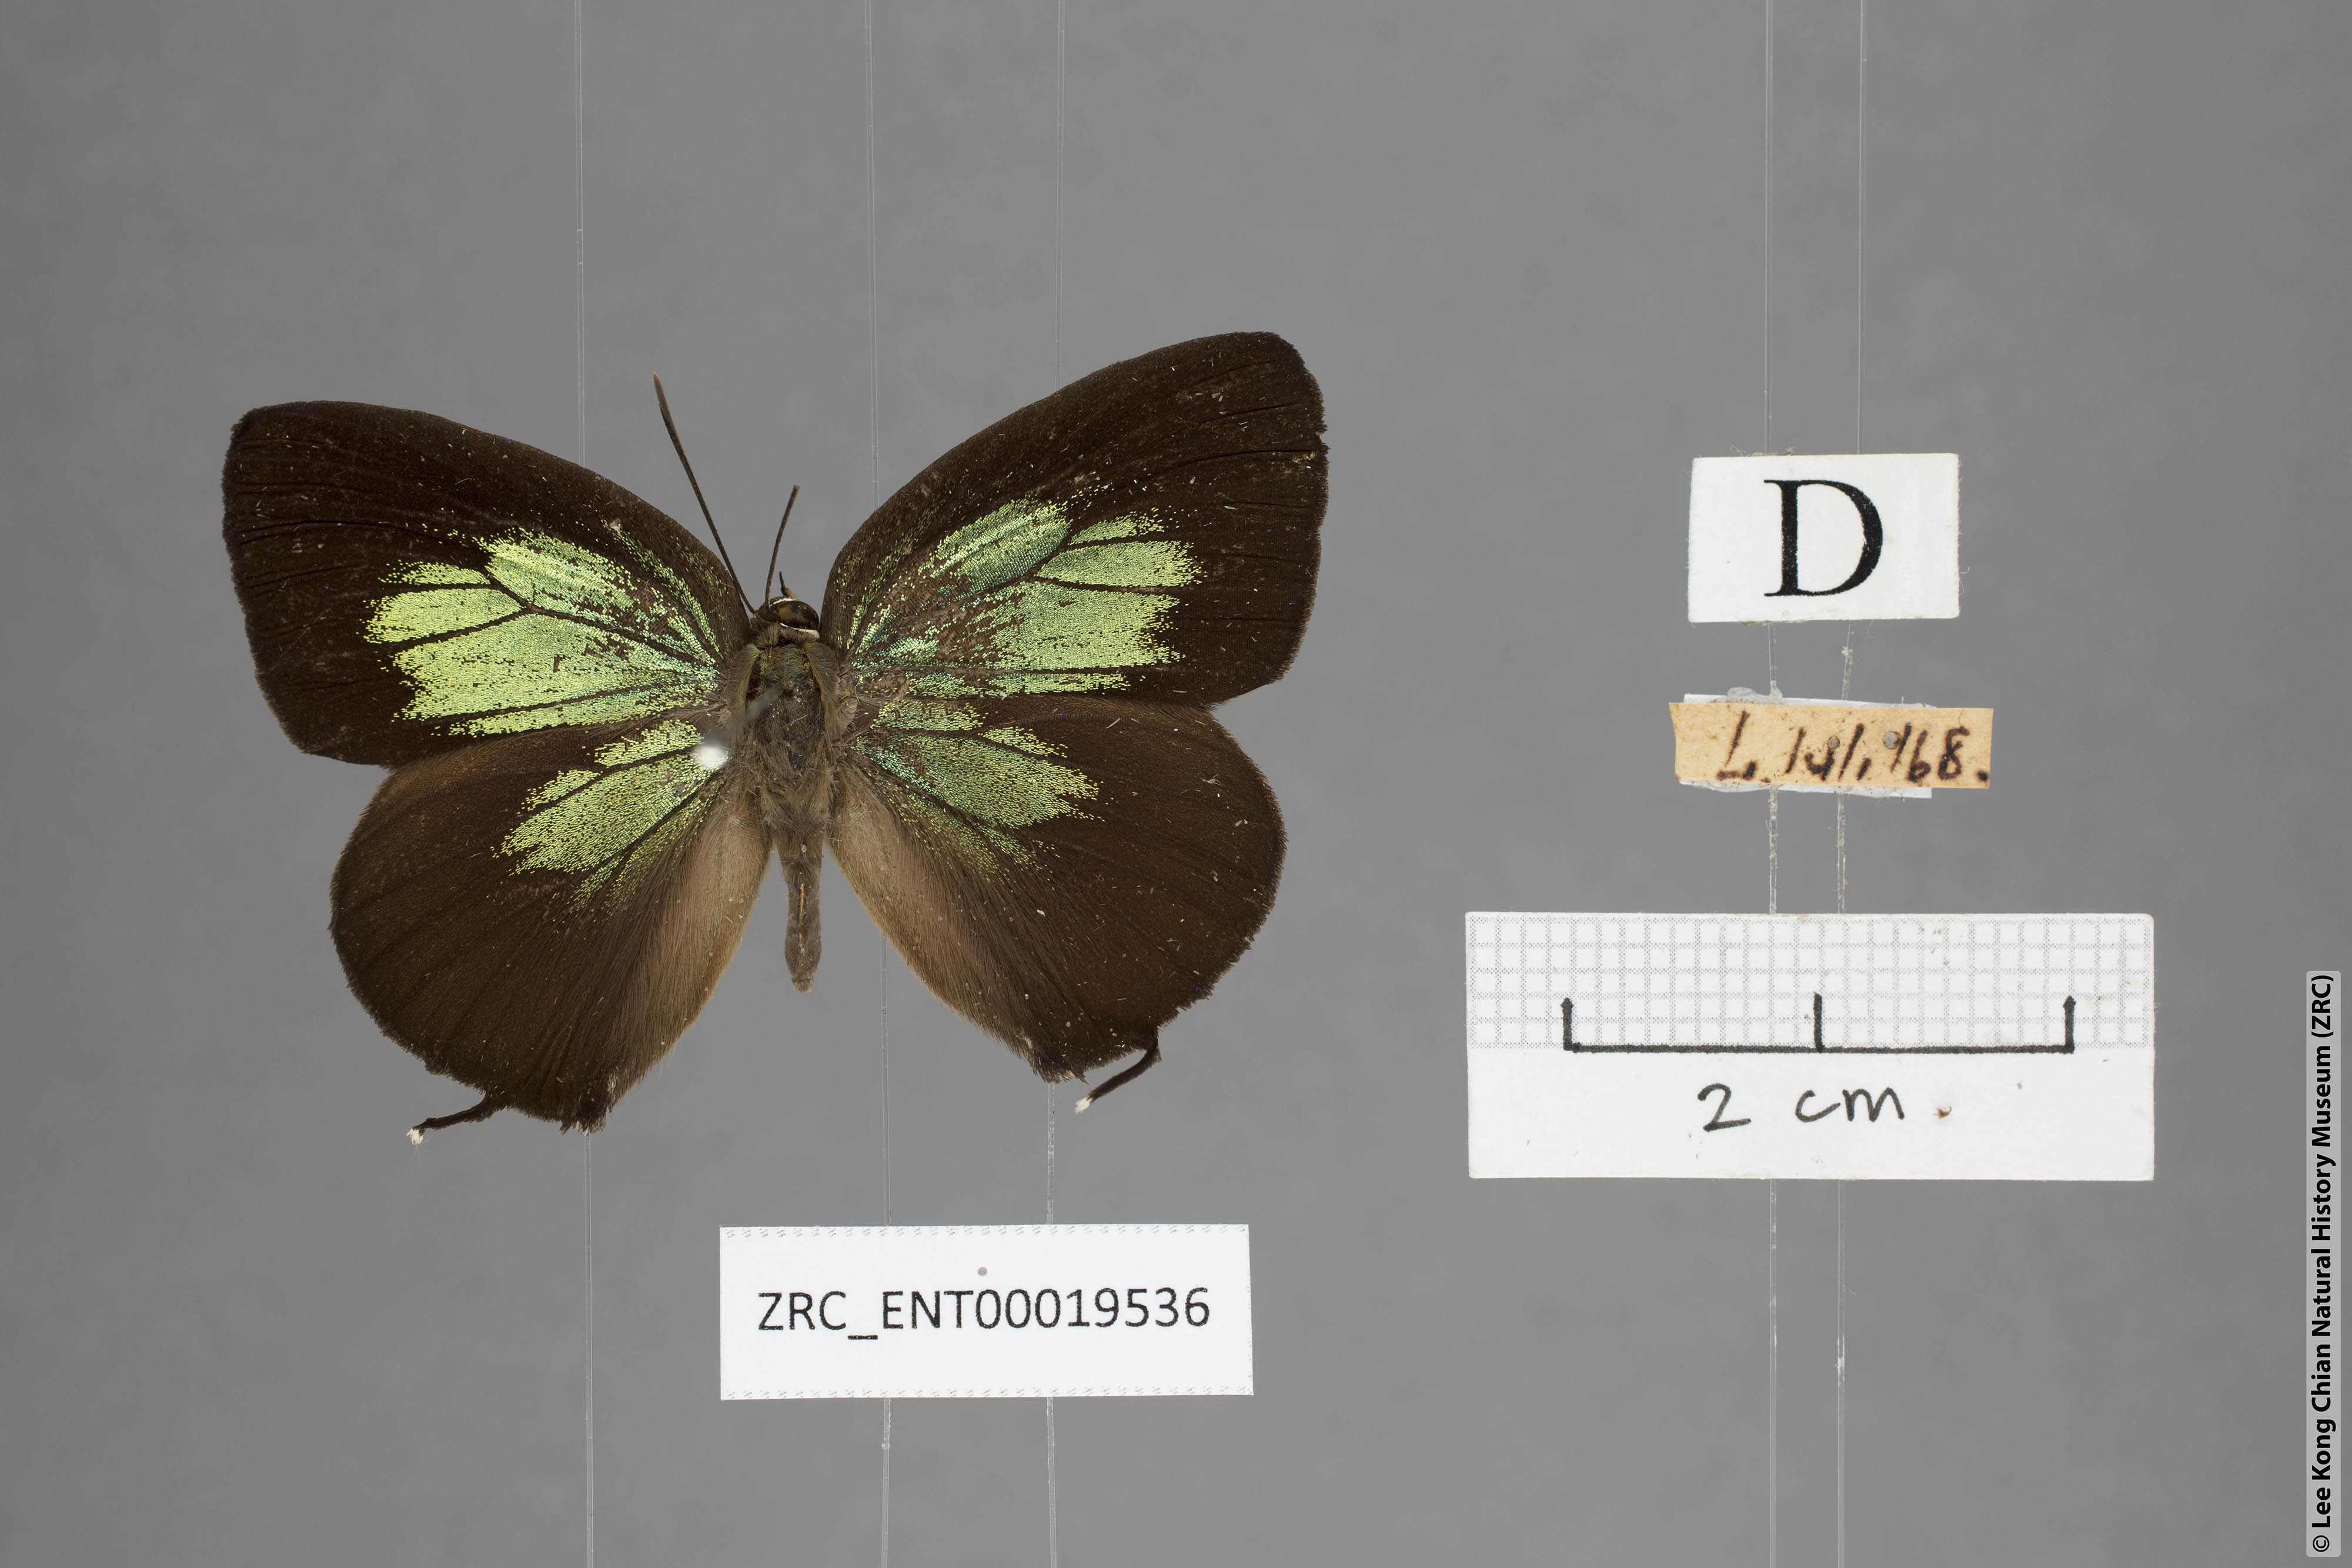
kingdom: Animalia
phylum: Arthropoda
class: Insecta
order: Lepidoptera
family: Lycaenidae
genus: Arhopala
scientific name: Arhopala horsfieldi
